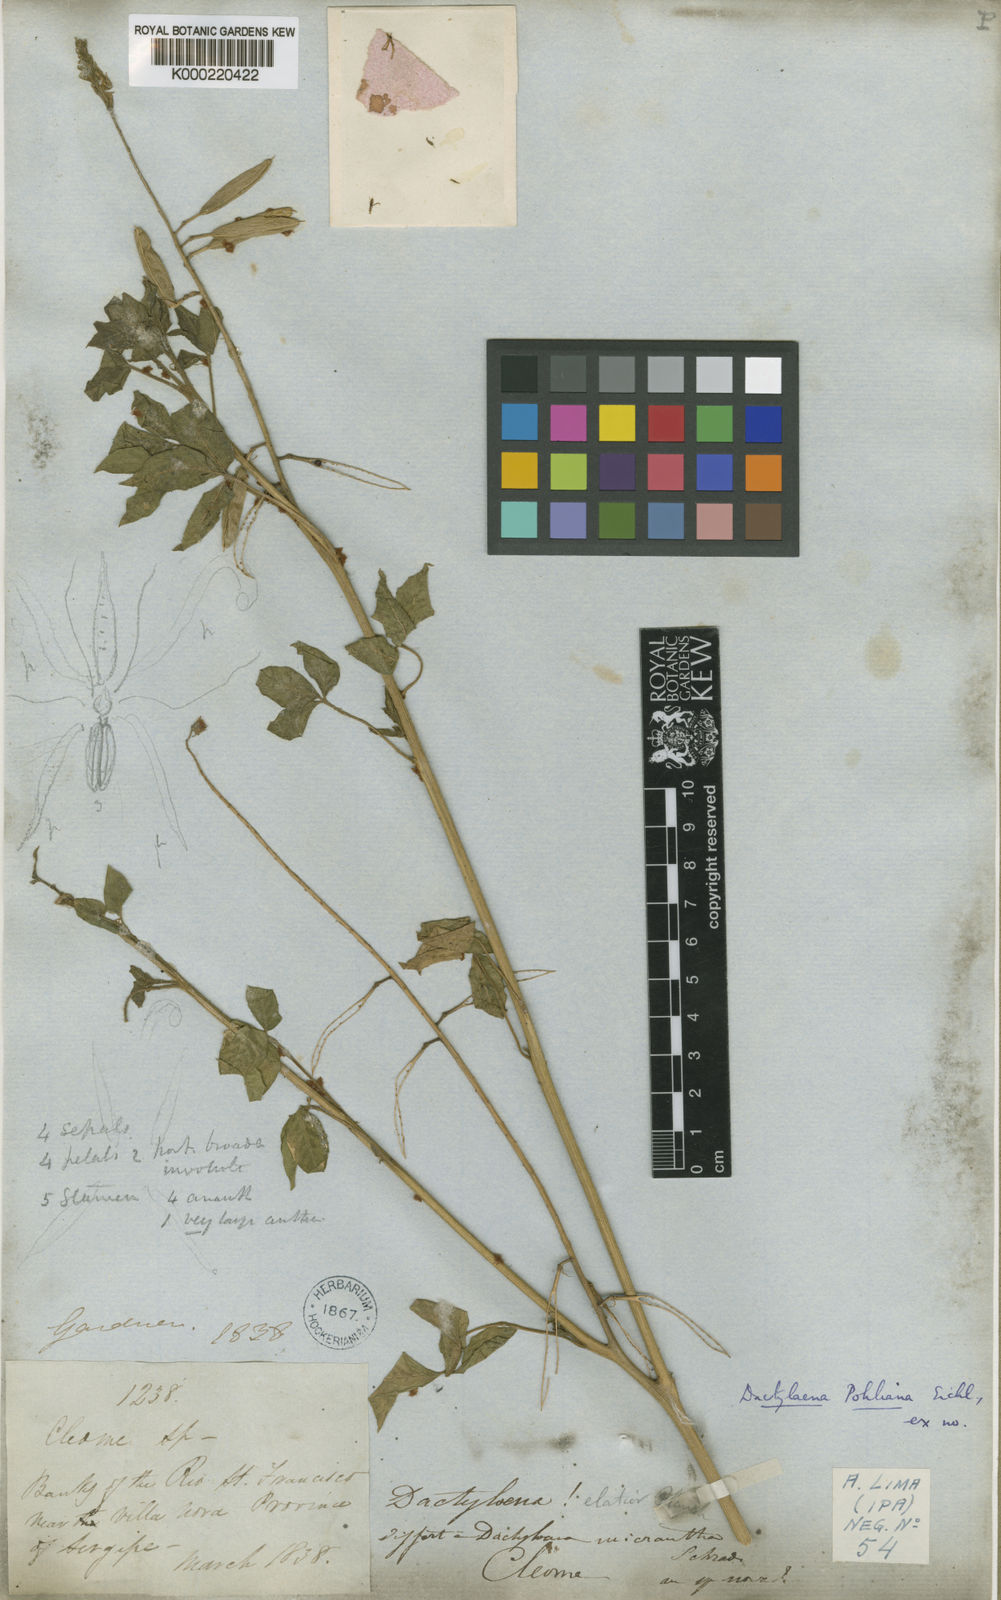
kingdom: Plantae
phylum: Tracheophyta
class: Magnoliopsida
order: Brassicales
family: Cleomaceae
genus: Dactylaena
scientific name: Dactylaena pohliana
